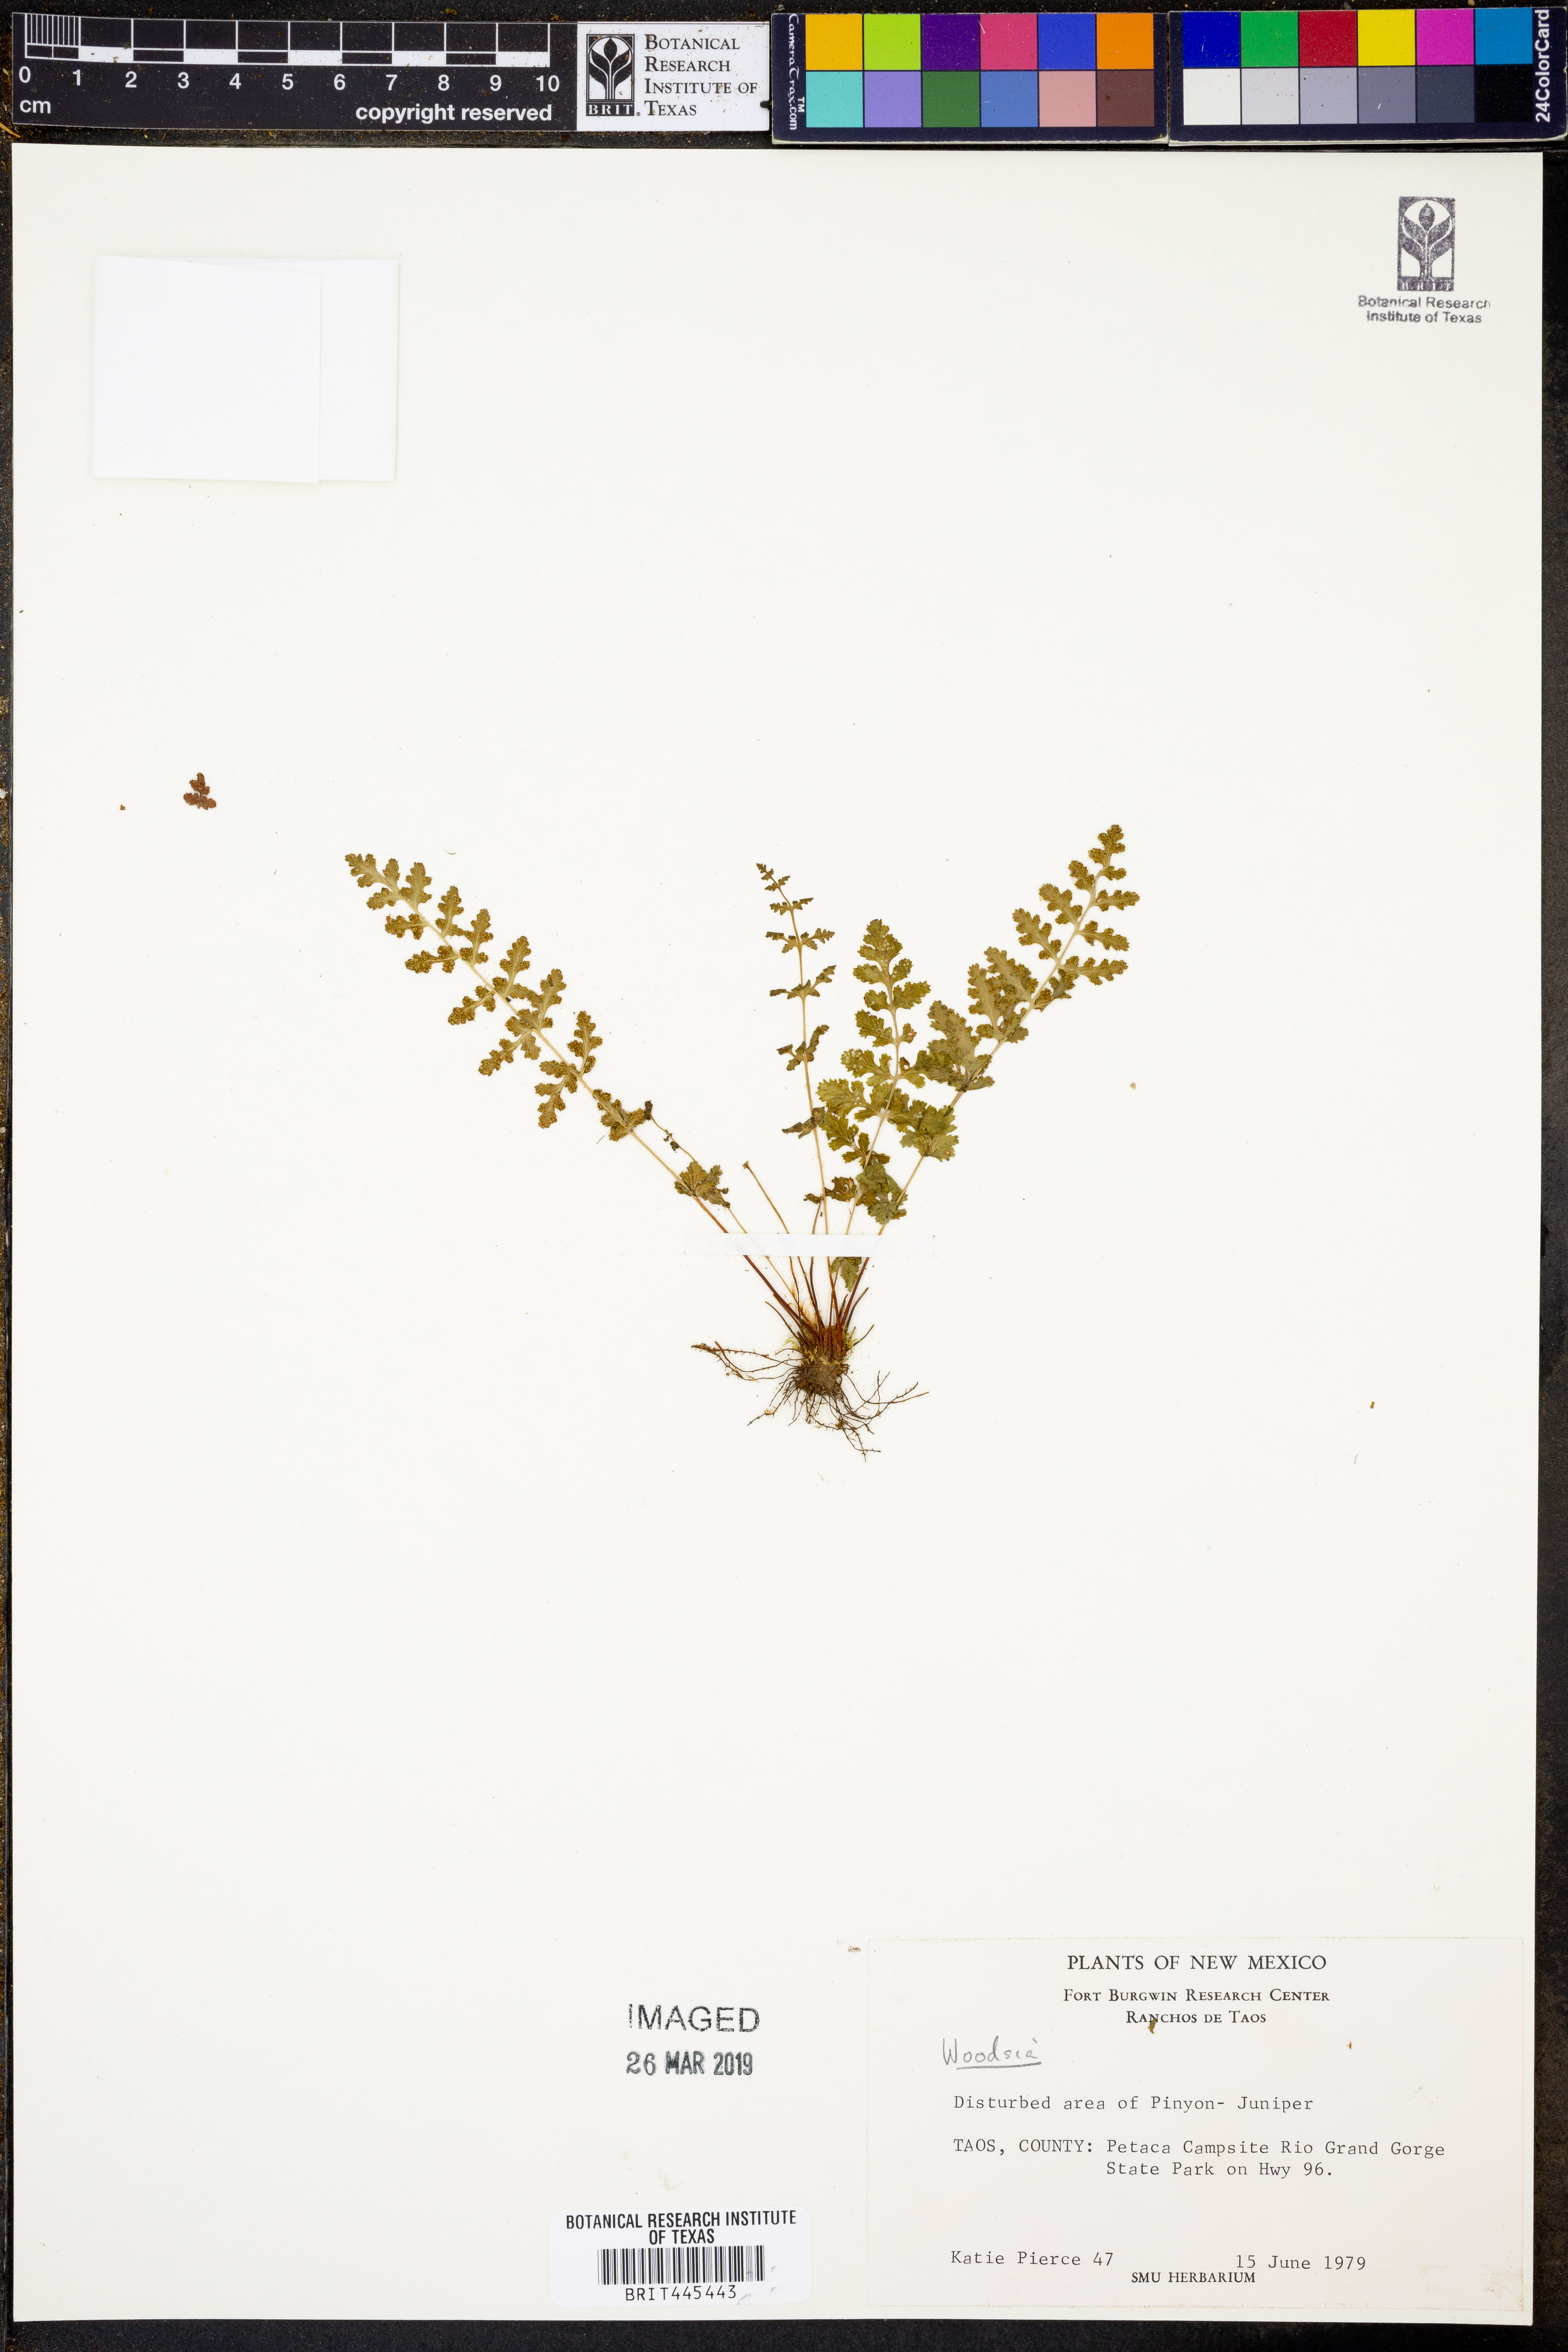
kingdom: Plantae
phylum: Tracheophyta
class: Polypodiopsida
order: Polypodiales
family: Woodsiaceae
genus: Woodsia
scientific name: Woodsia
